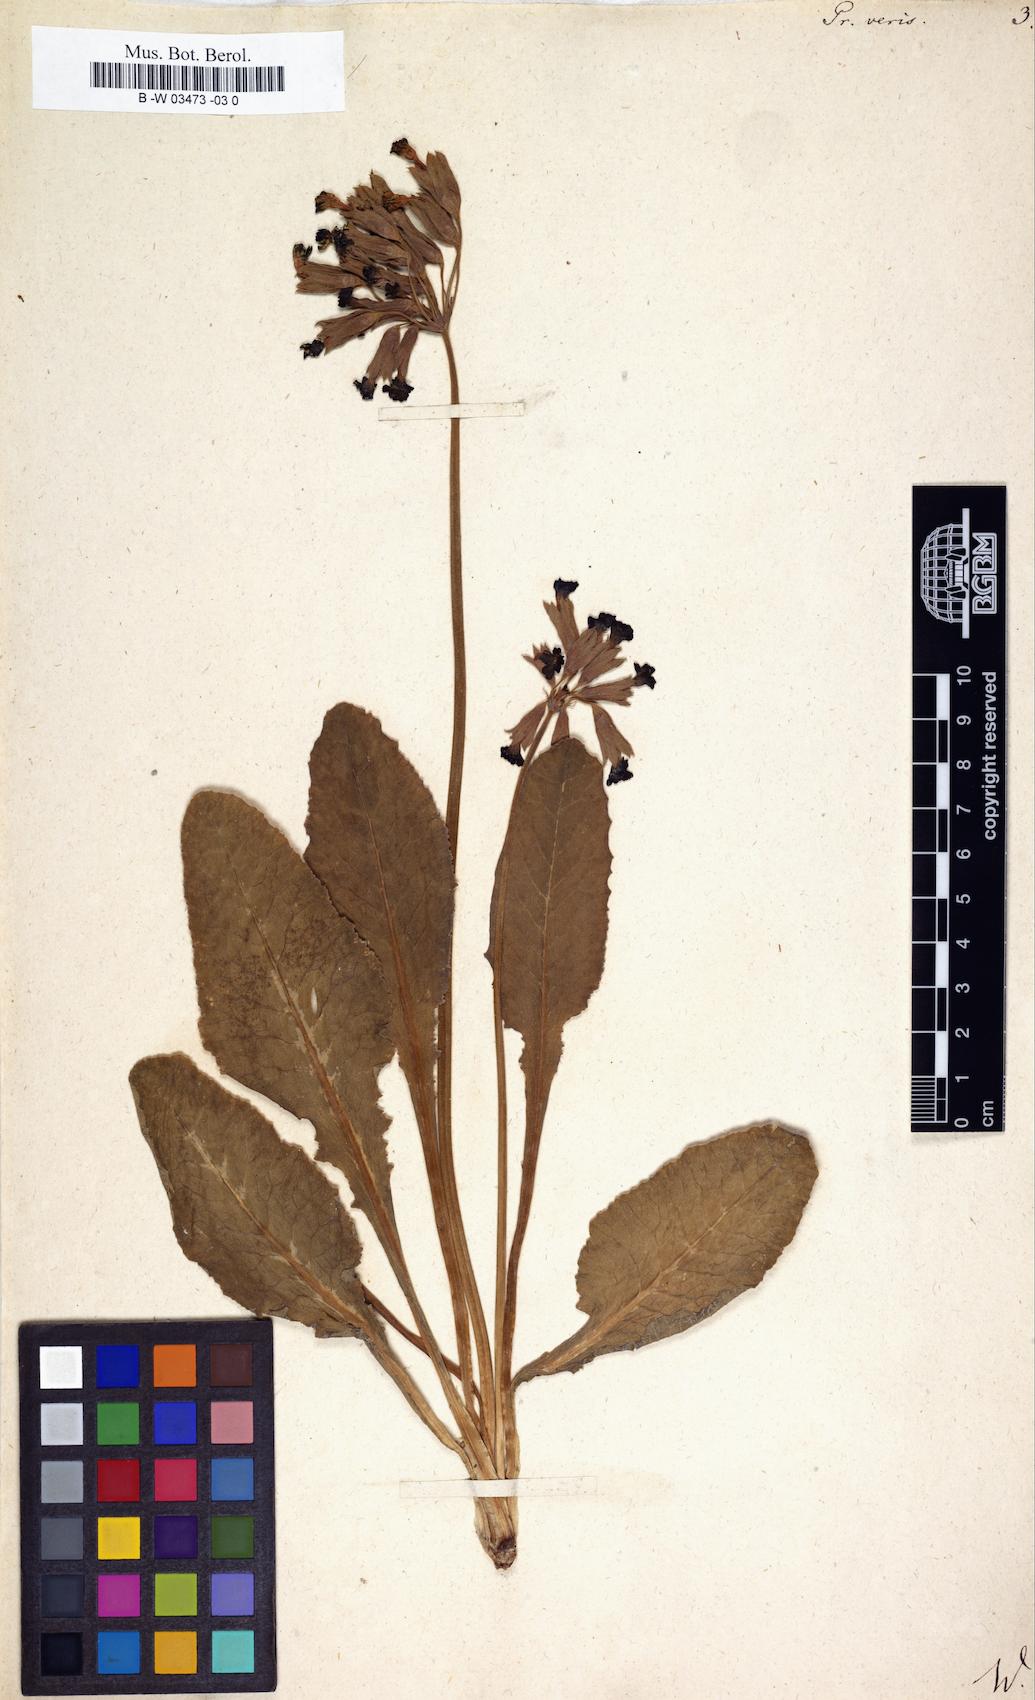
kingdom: Plantae
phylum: Tracheophyta
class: Magnoliopsida
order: Ericales
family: Primulaceae
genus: Primula
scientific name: Primula veris
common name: Cowslip
